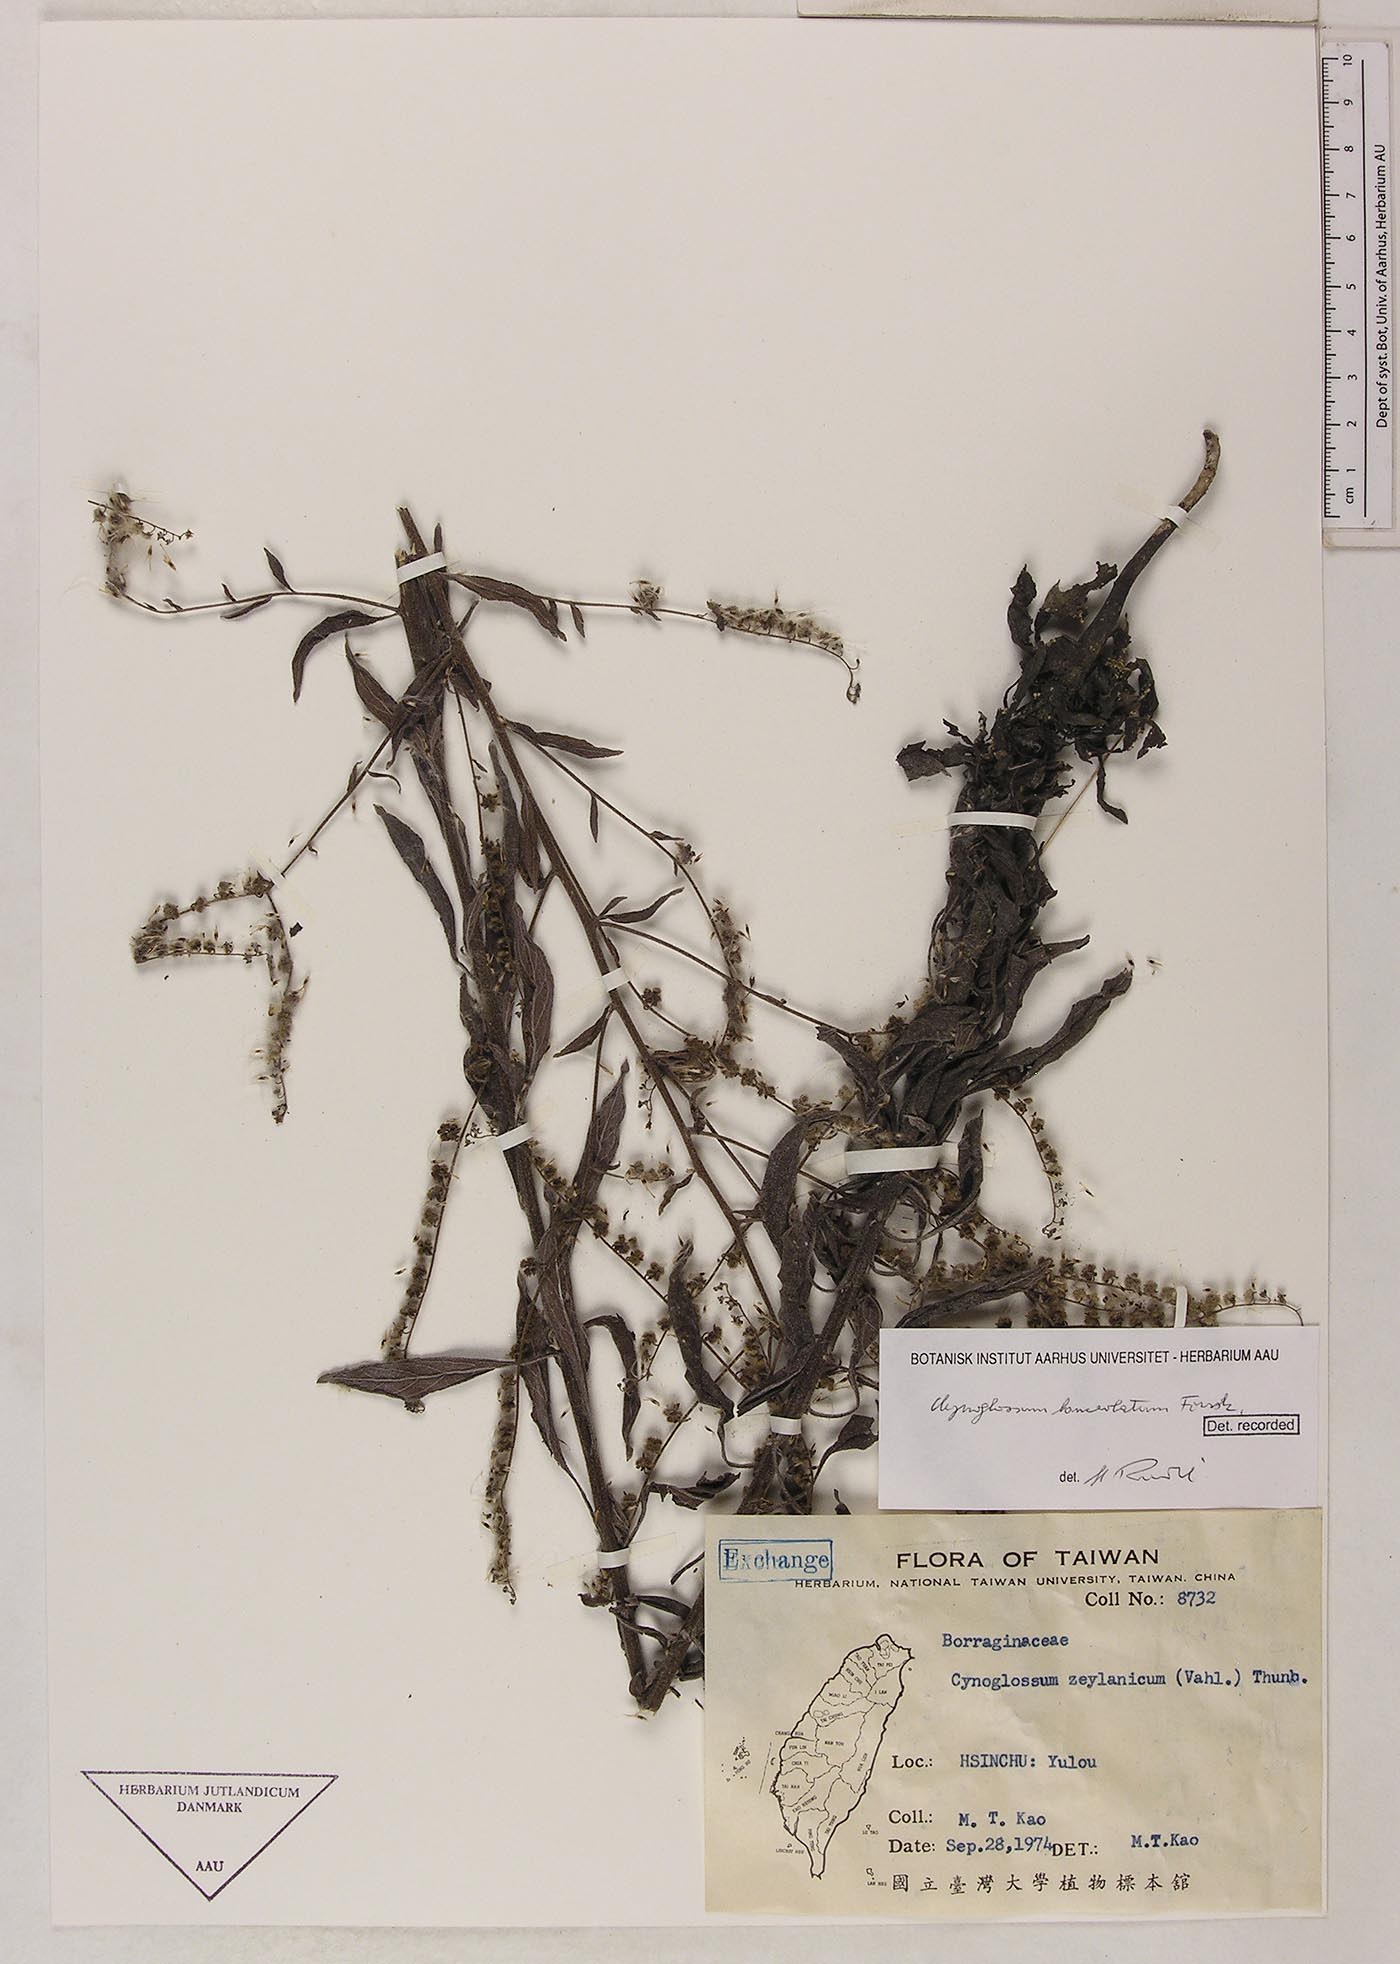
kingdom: Plantae
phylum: Tracheophyta
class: Magnoliopsida
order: Boraginales
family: Boraginaceae
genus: Paracynoglossum
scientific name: Paracynoglossum lanceolatum
